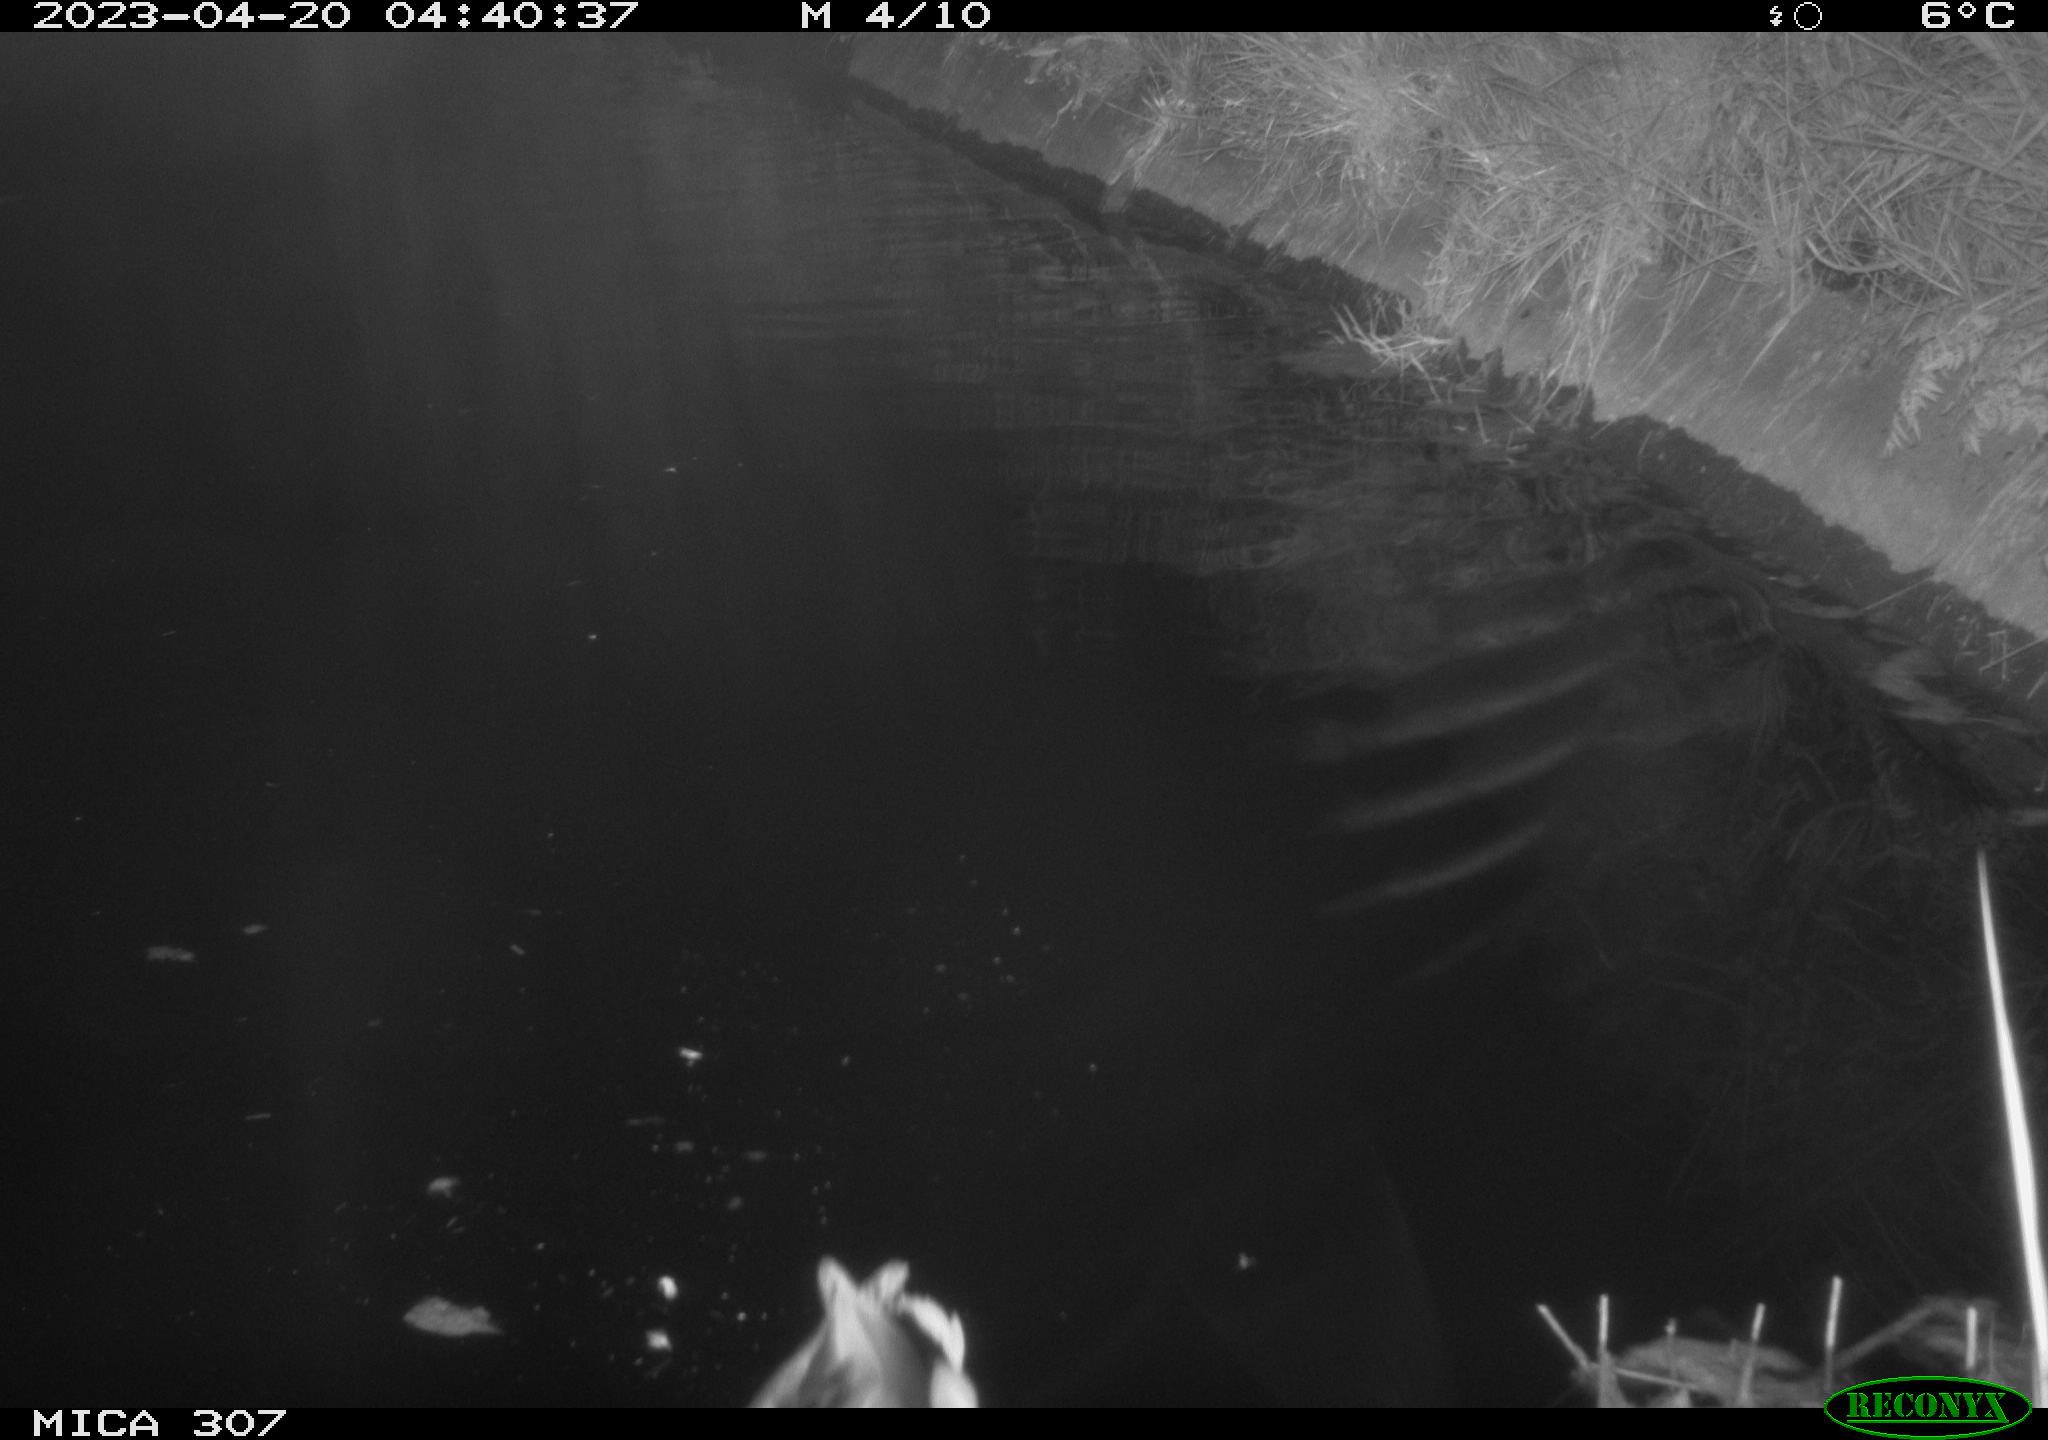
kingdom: Animalia
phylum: Chordata
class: Aves
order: Anseriformes
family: Anatidae
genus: Anas
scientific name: Anas
